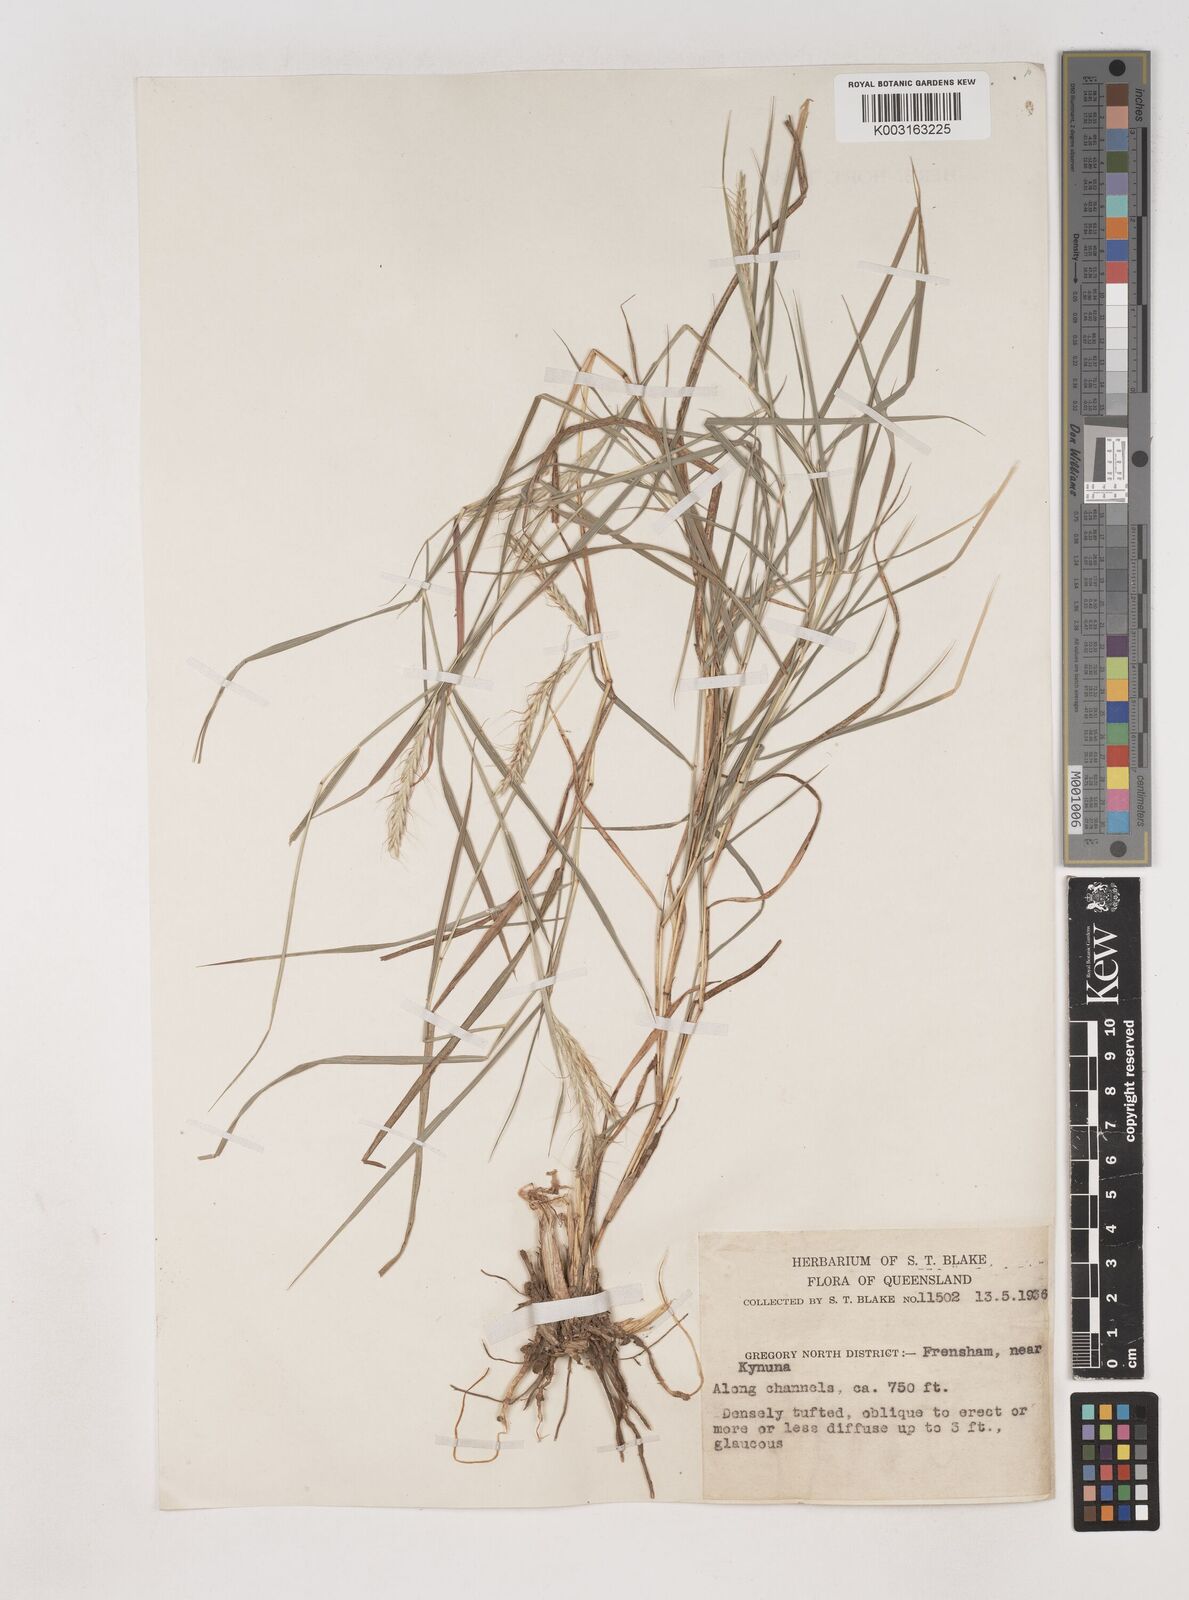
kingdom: Plantae
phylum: Tracheophyta
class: Liliopsida
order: Poales
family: Poaceae
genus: Dichanthium
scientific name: Dichanthium fecundum
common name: Bundle-bundle
